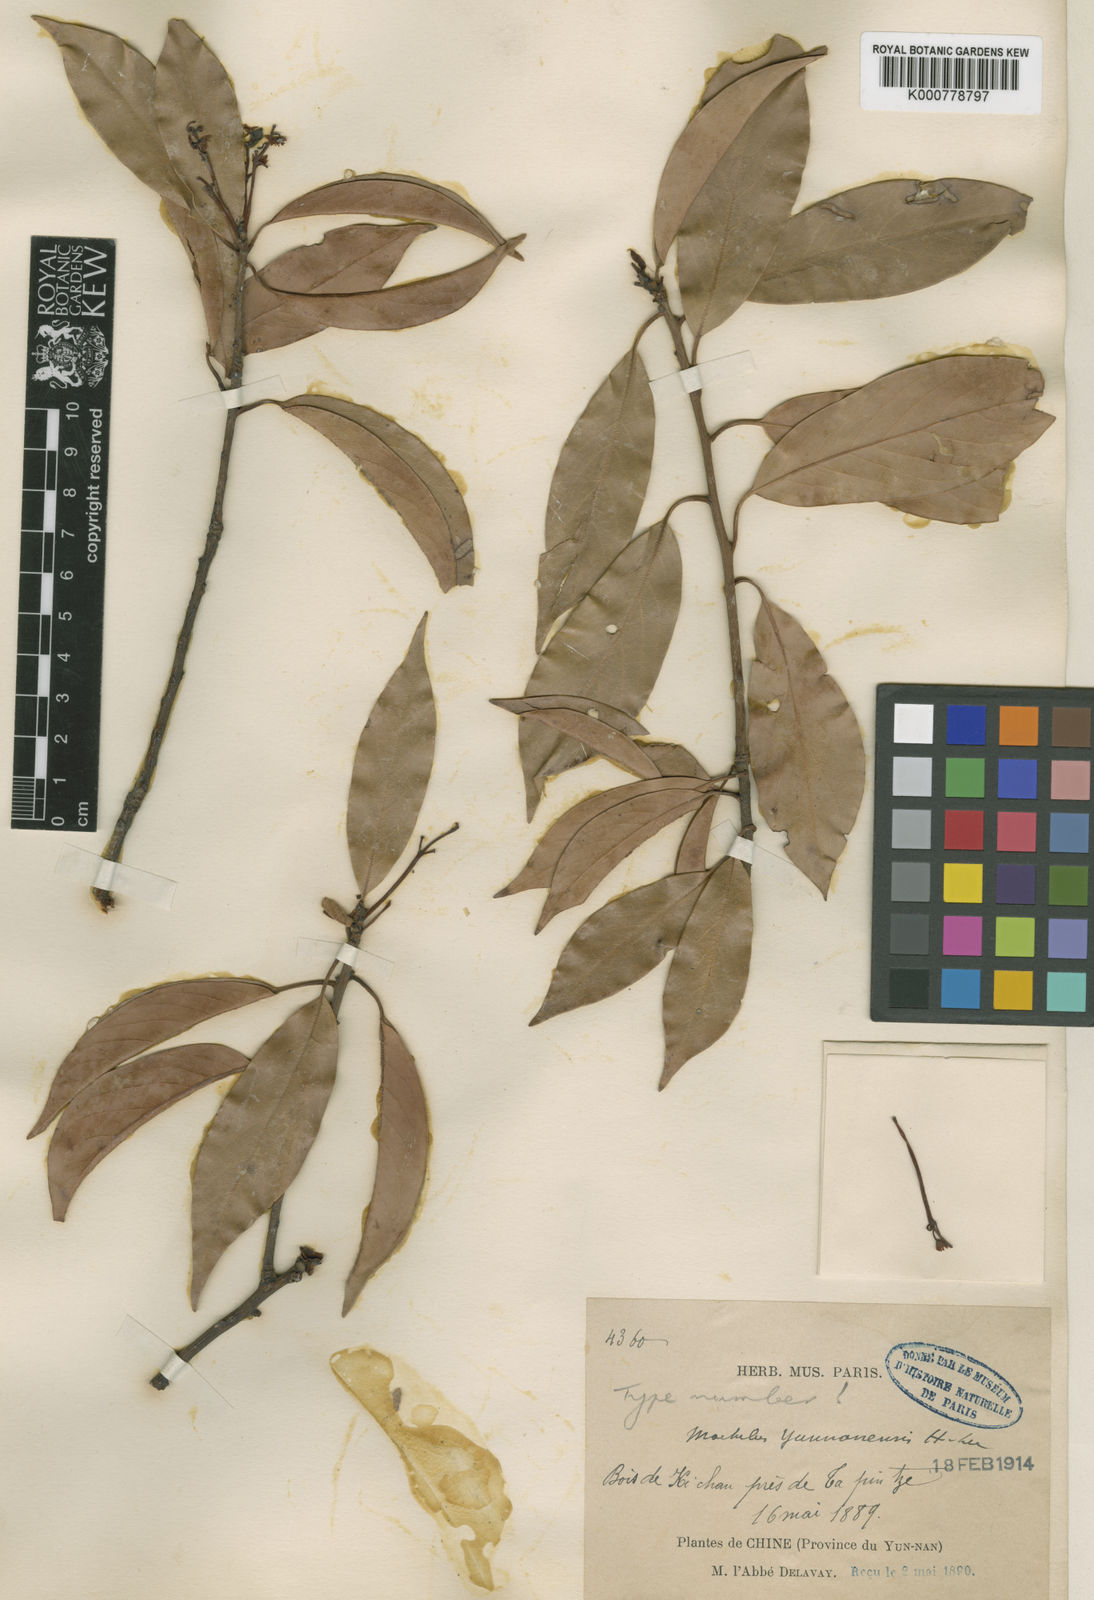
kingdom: Plantae
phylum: Tracheophyta
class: Magnoliopsida
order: Laurales
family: Lauraceae
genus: Machilus
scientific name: Machilus yunnanensis
